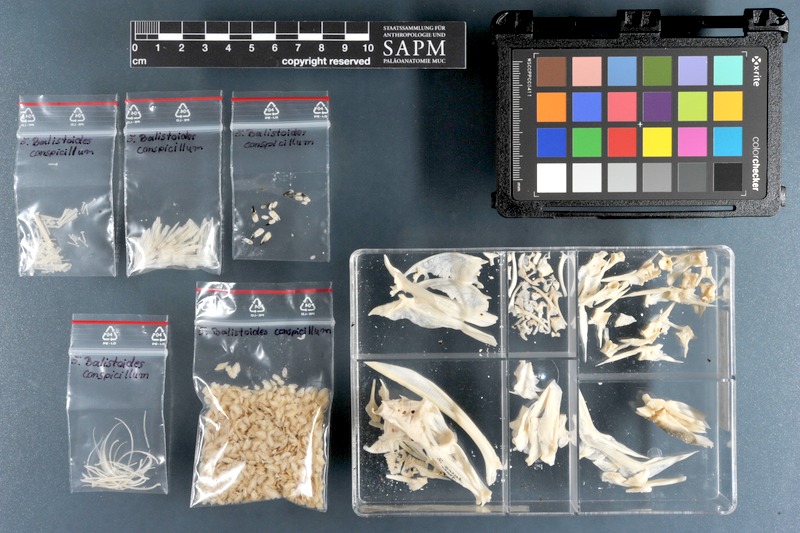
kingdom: Animalia
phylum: Chordata
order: Tetraodontiformes
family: Balistidae
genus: Balistoides
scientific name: Balistoides conspicillum
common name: Clown triggerfish
